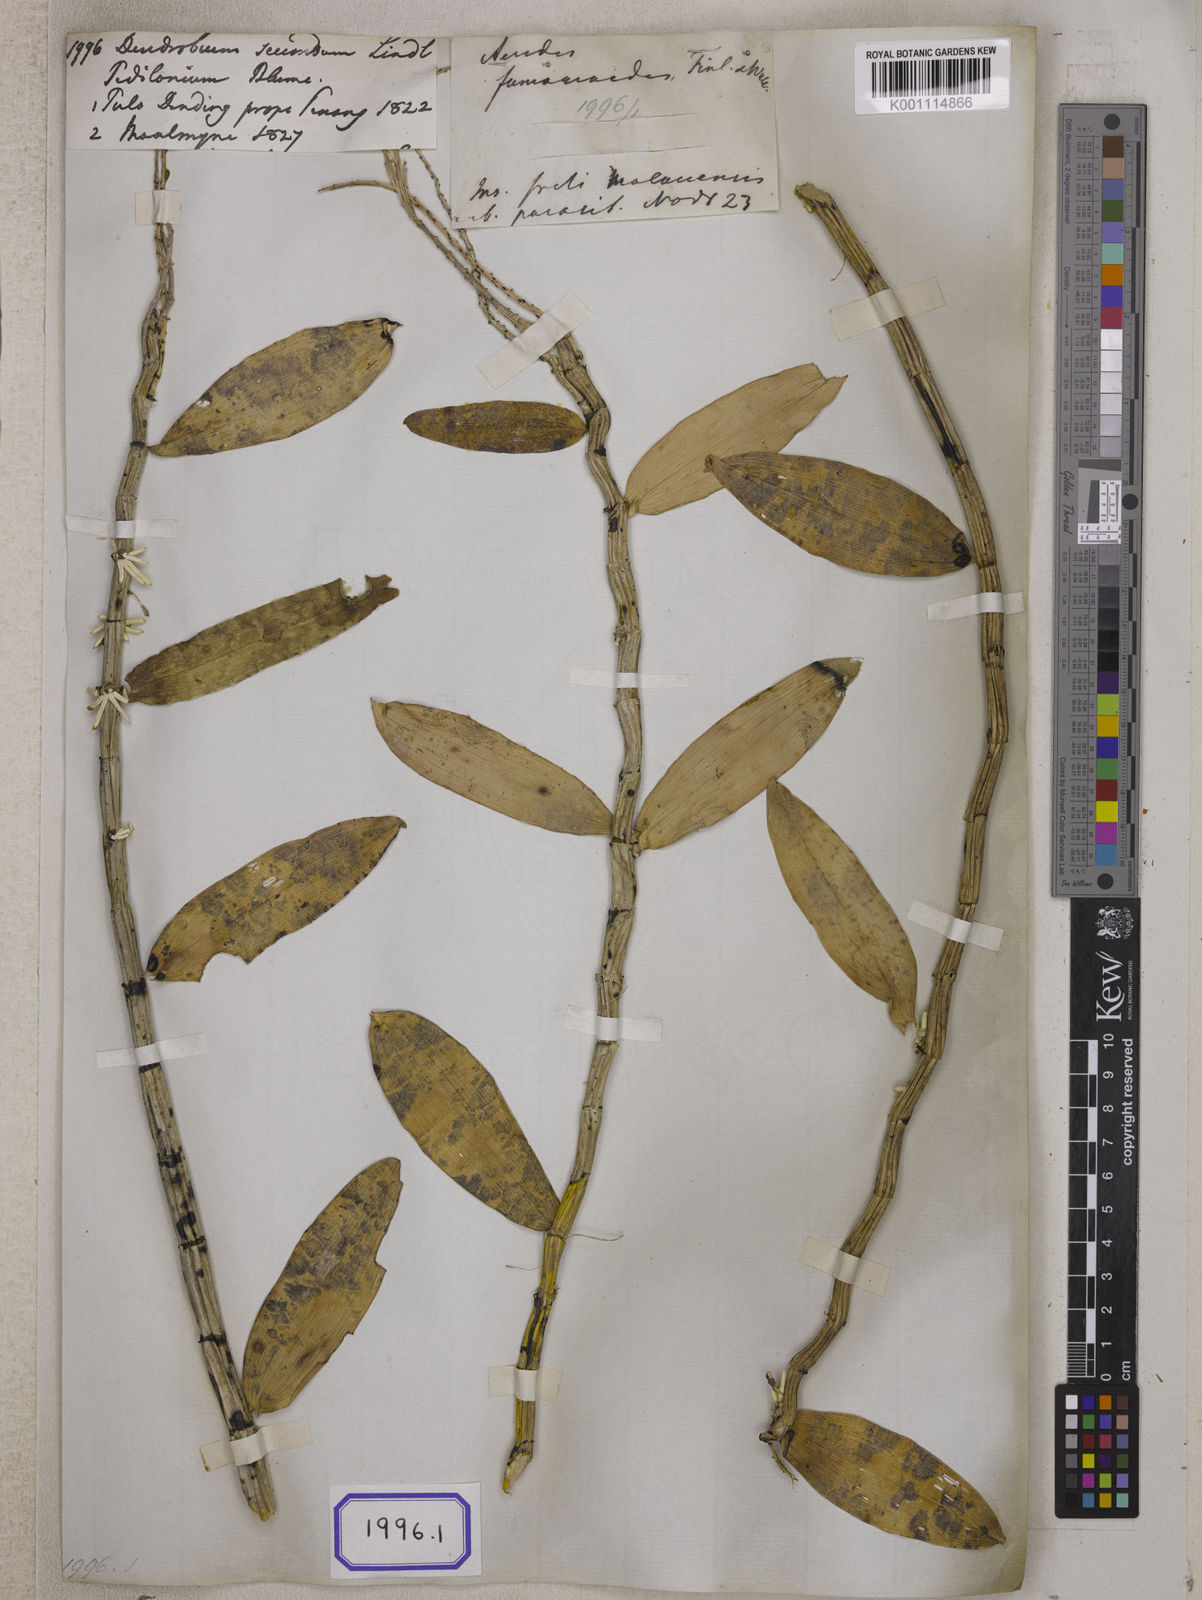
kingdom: Plantae
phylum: Tracheophyta
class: Liliopsida
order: Asparagales
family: Orchidaceae
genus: Dendrobium
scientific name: Dendrobium
